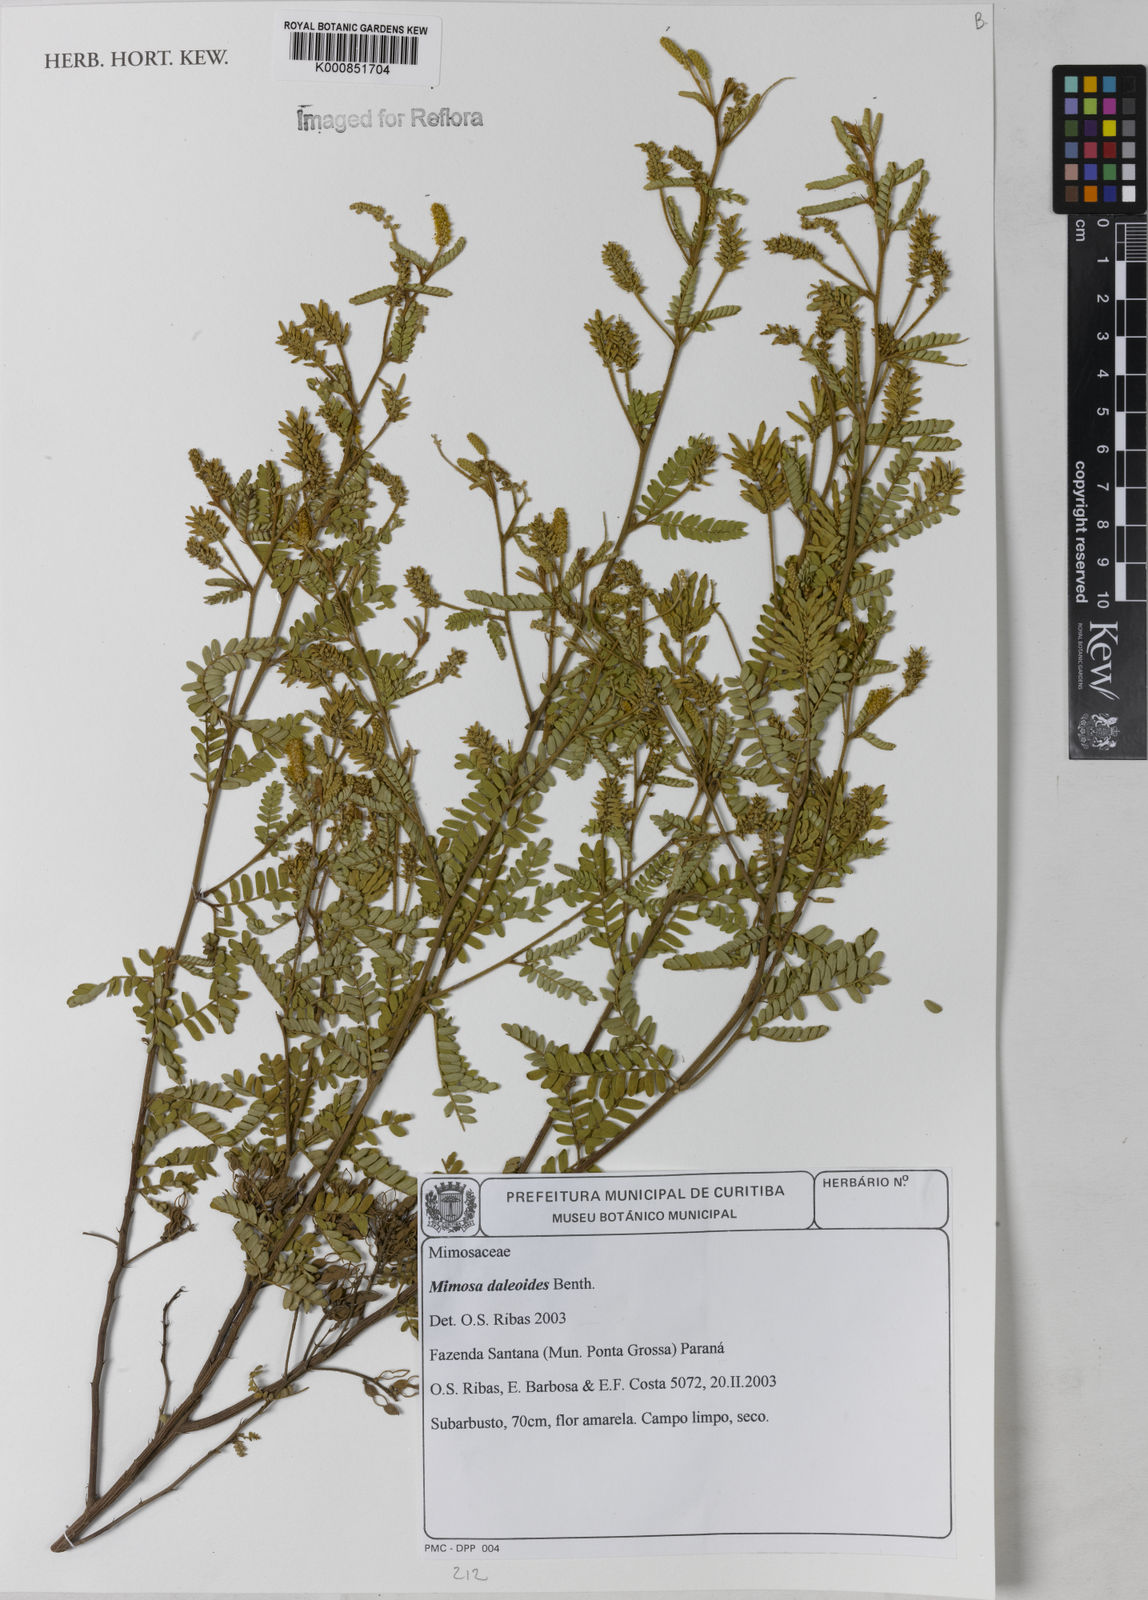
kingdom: Plantae
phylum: Tracheophyta
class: Magnoliopsida
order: Fabales
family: Fabaceae
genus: Mimosa
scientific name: Mimosa daleoides
